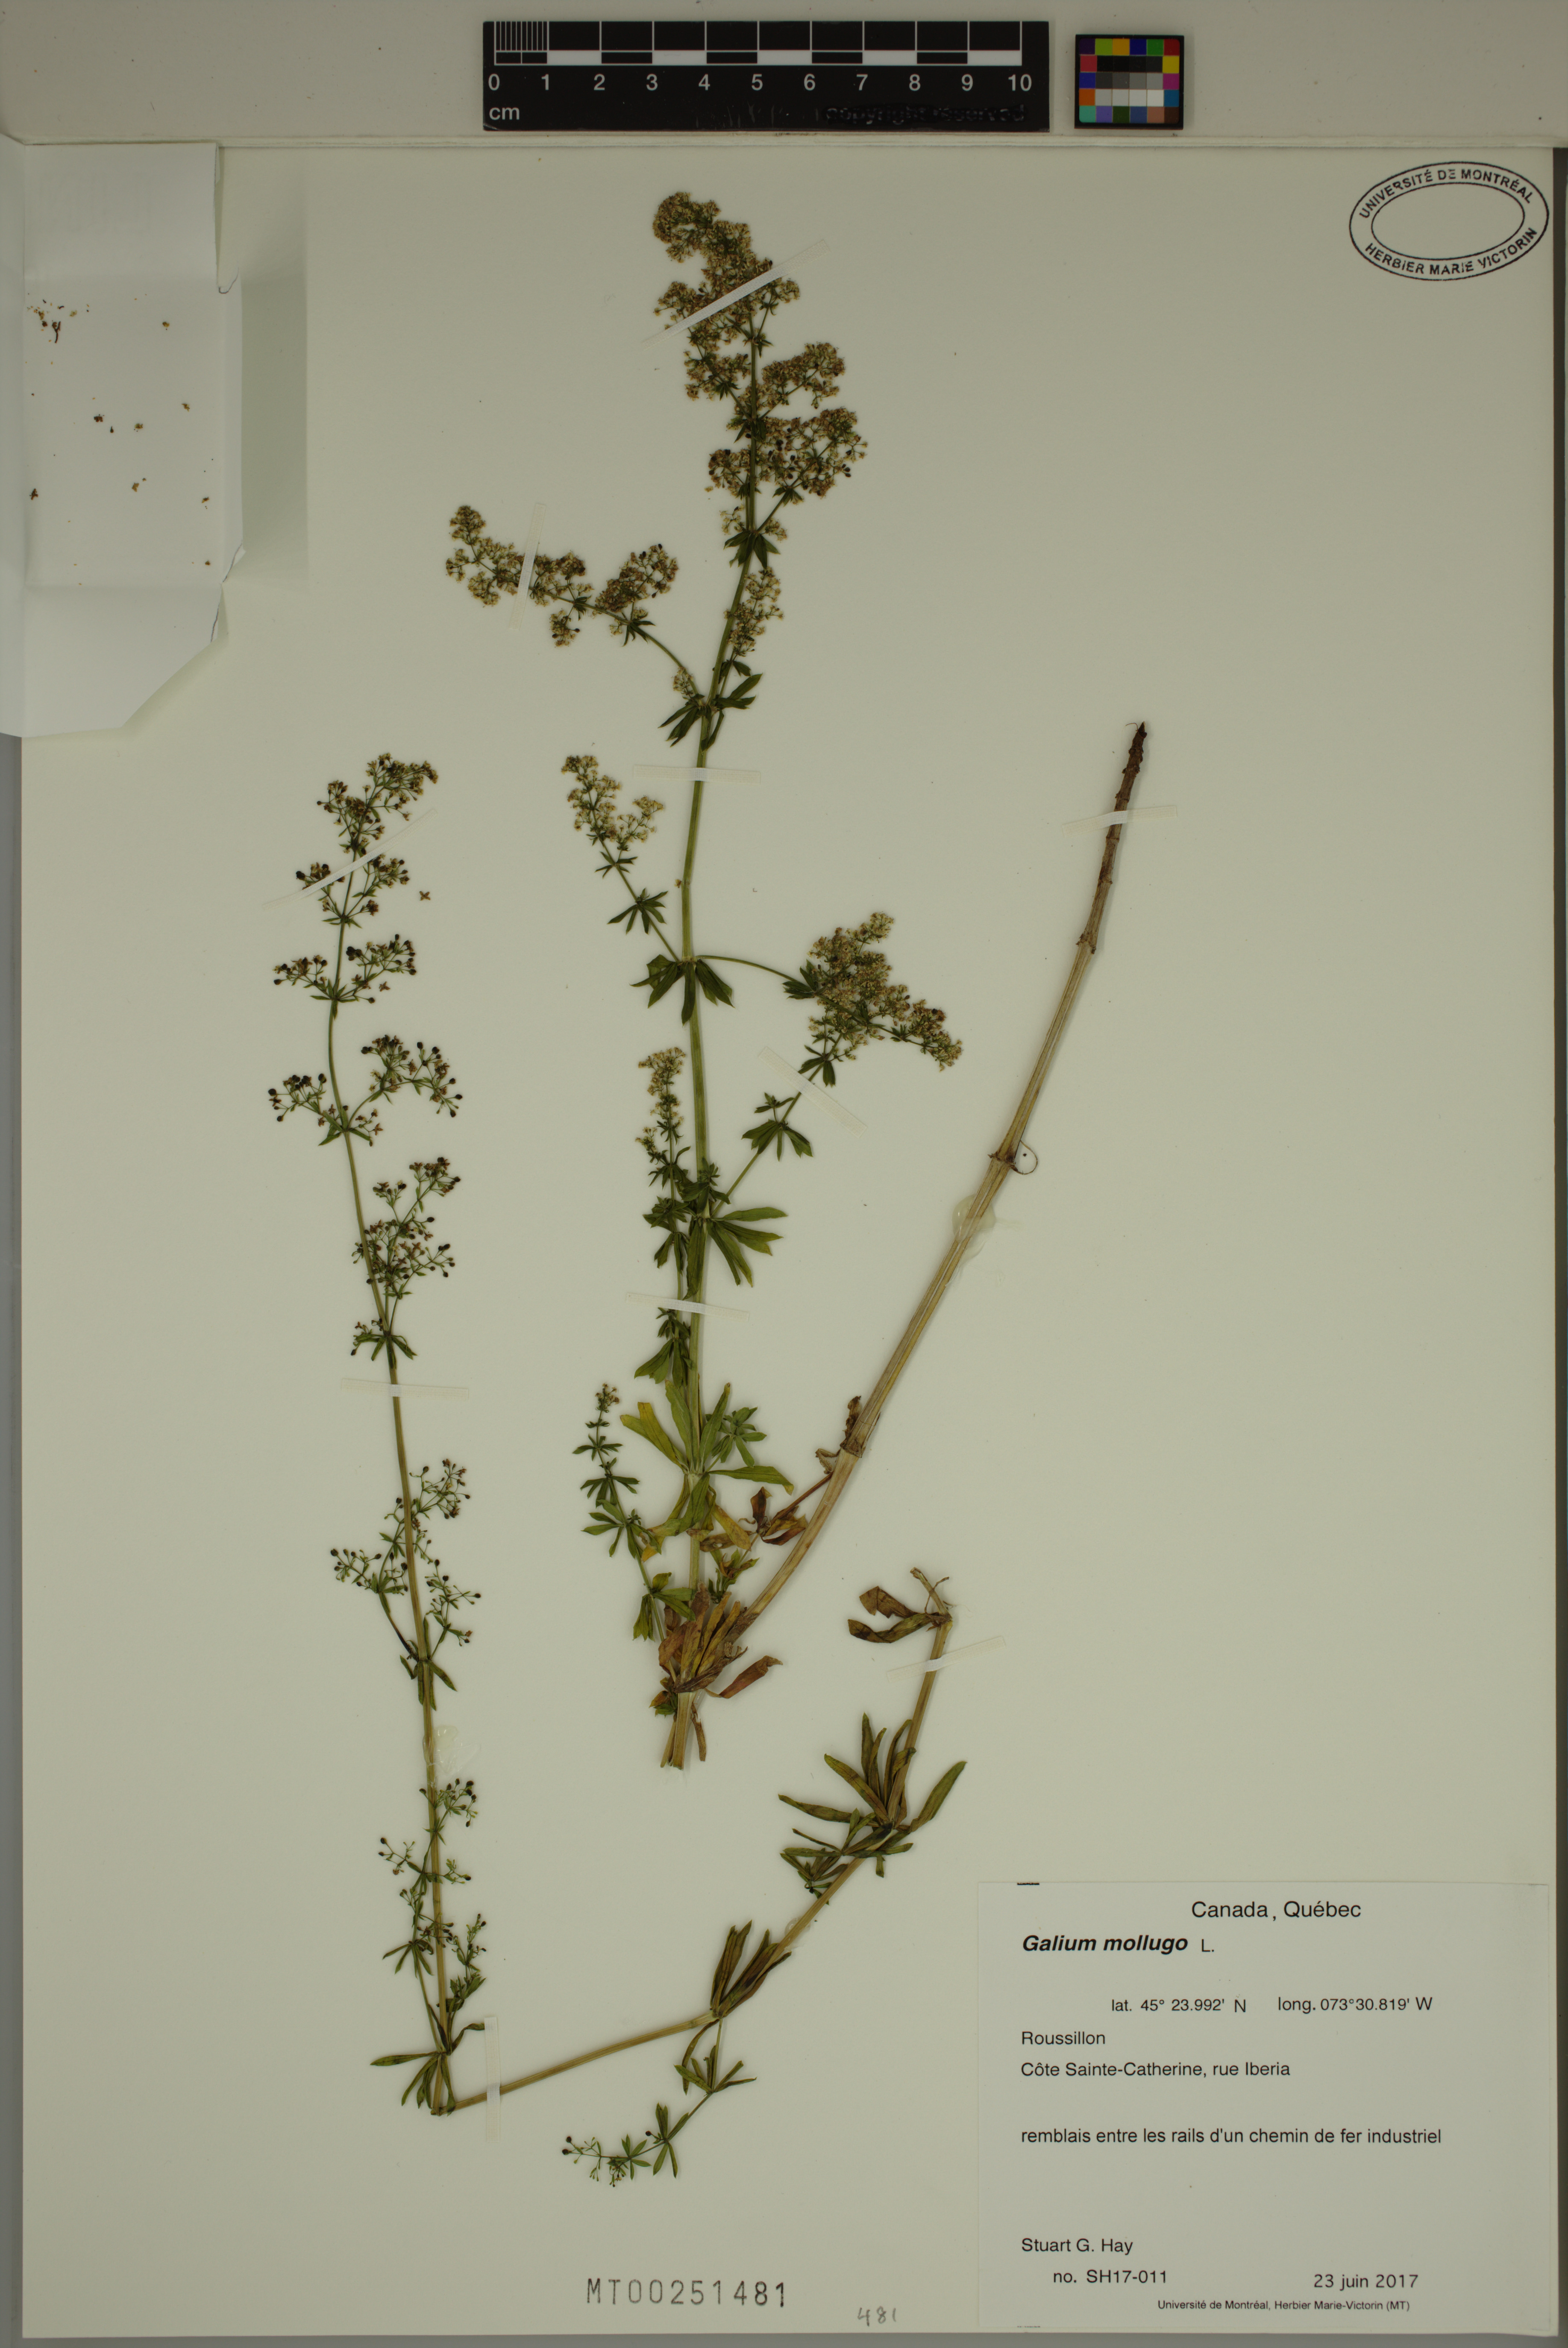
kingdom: Plantae
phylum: Tracheophyta
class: Magnoliopsida
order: Gentianales
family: Rubiaceae
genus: Galium
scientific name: Galium mollugo
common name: Hedge bedstraw
